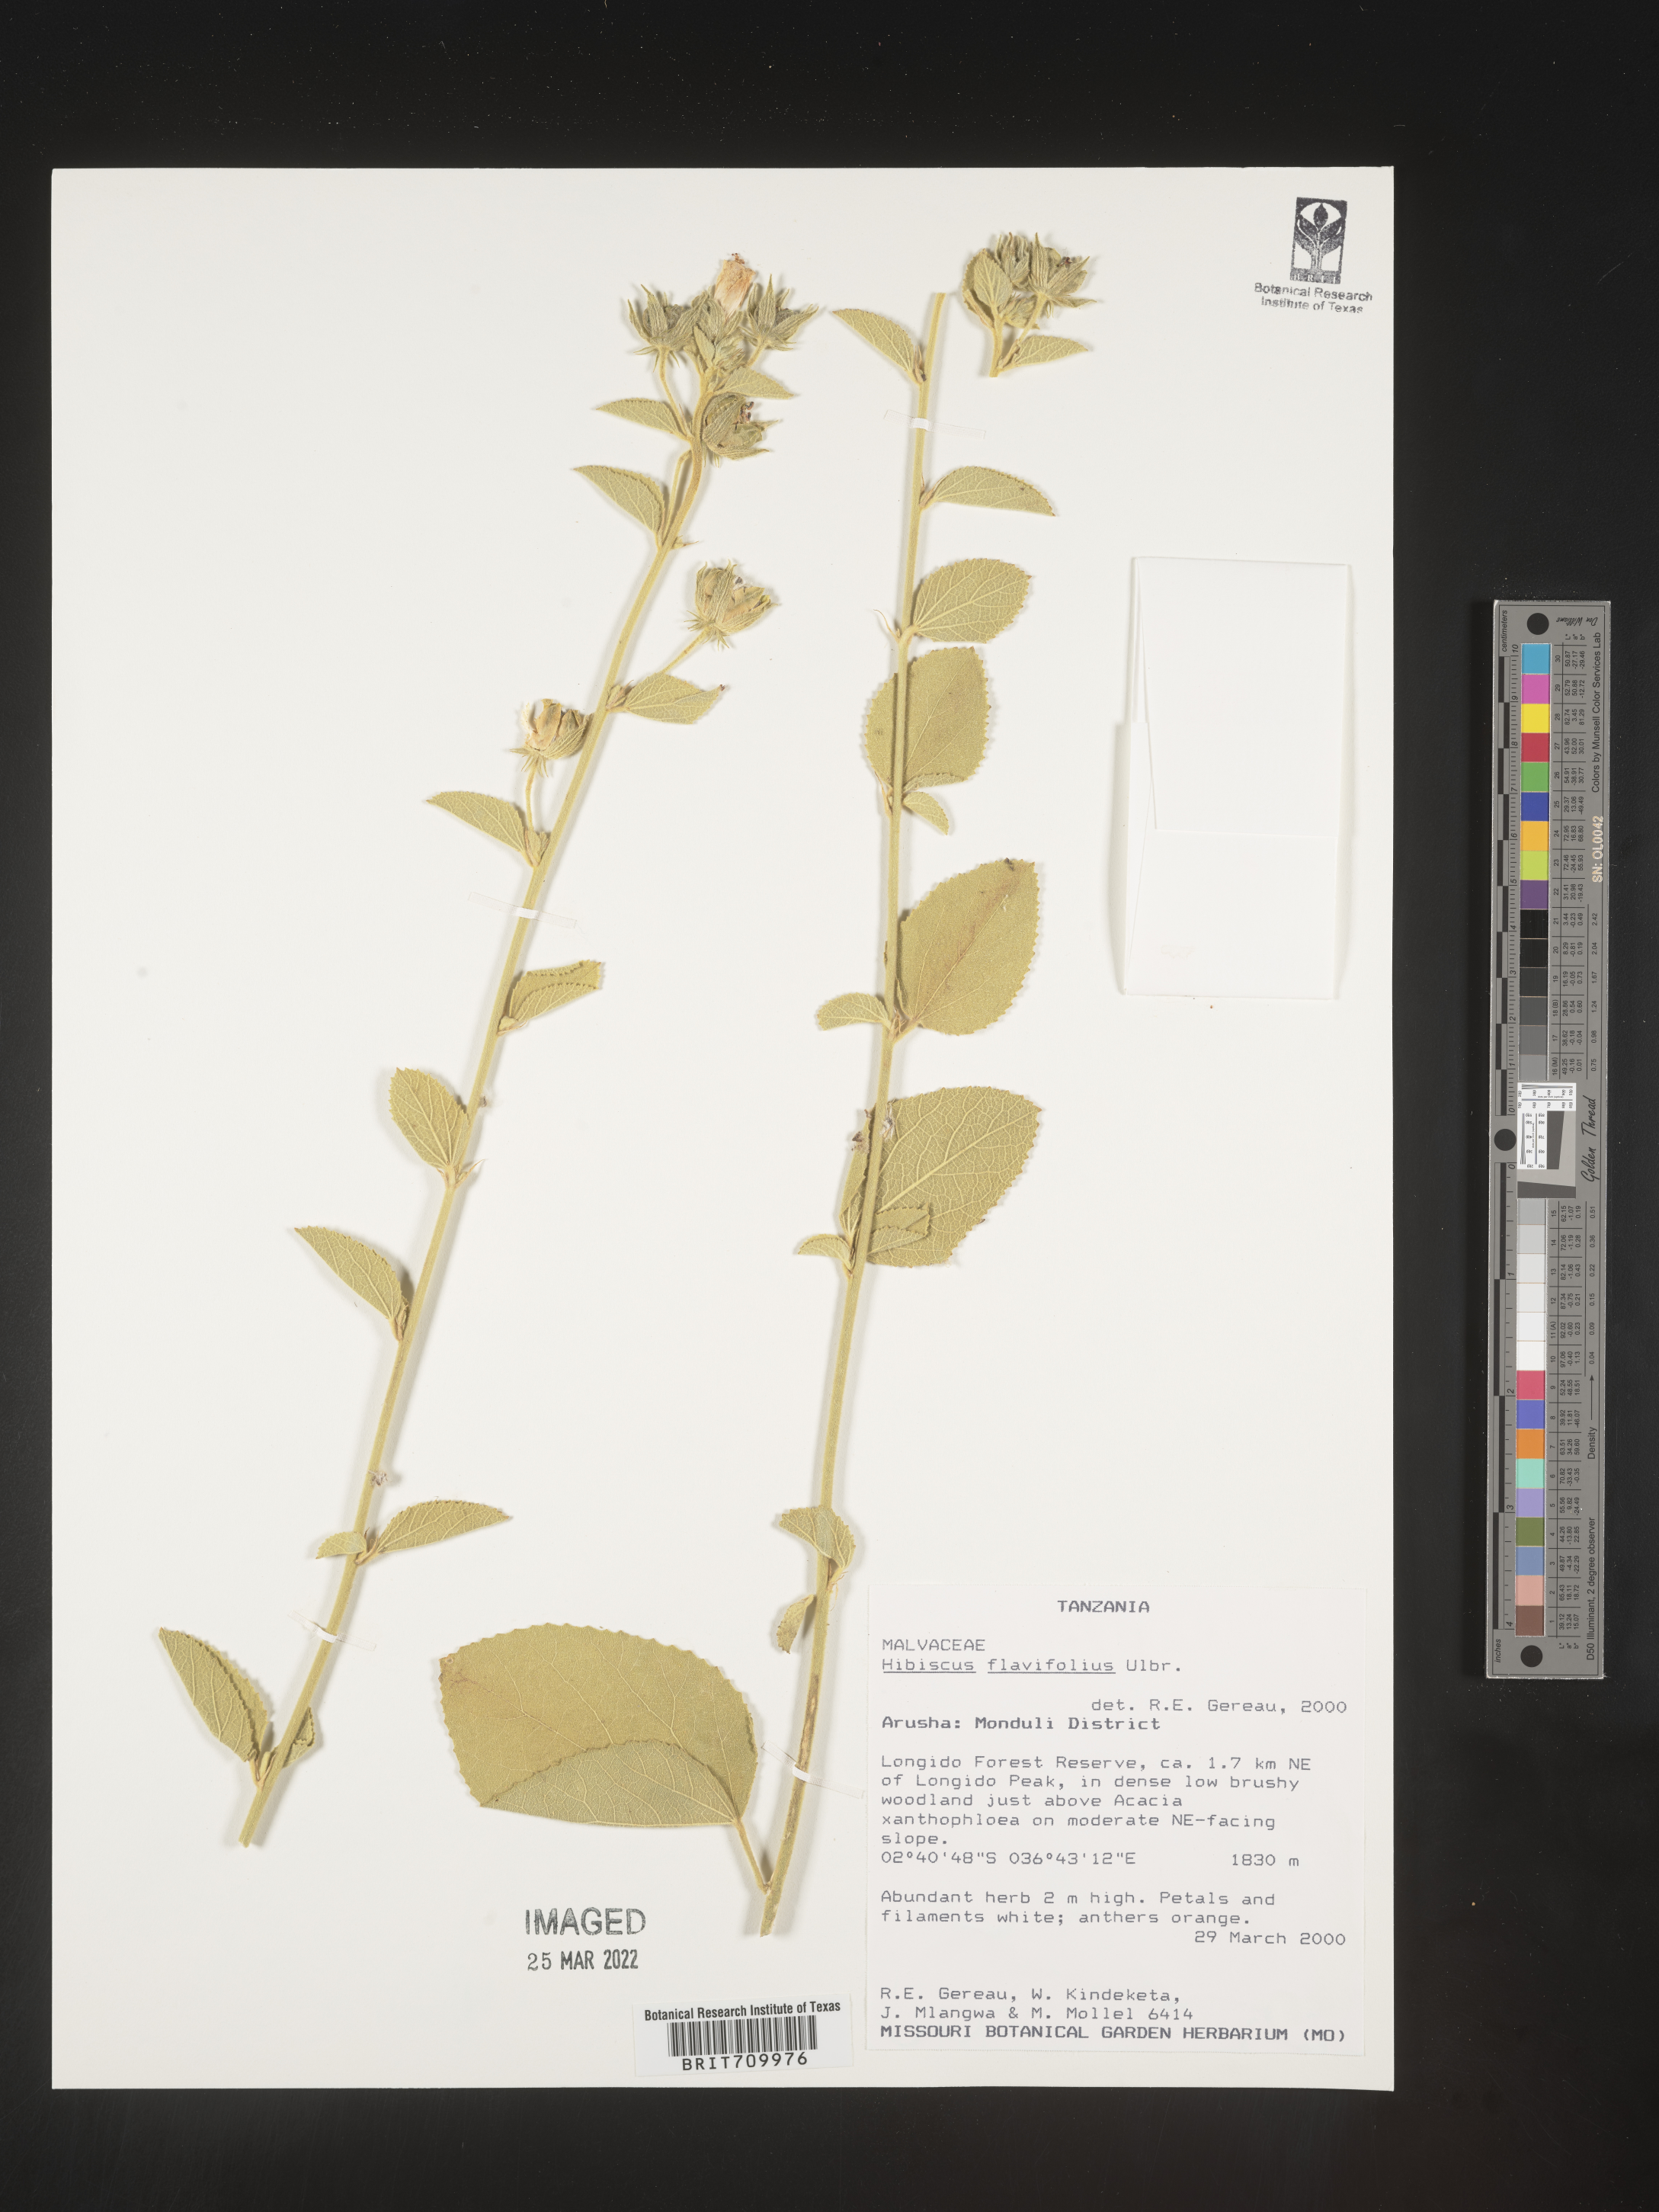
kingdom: Plantae
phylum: Tracheophyta
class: Magnoliopsida
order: Malvales
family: Malvaceae
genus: Hibiscus
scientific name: Hibiscus
